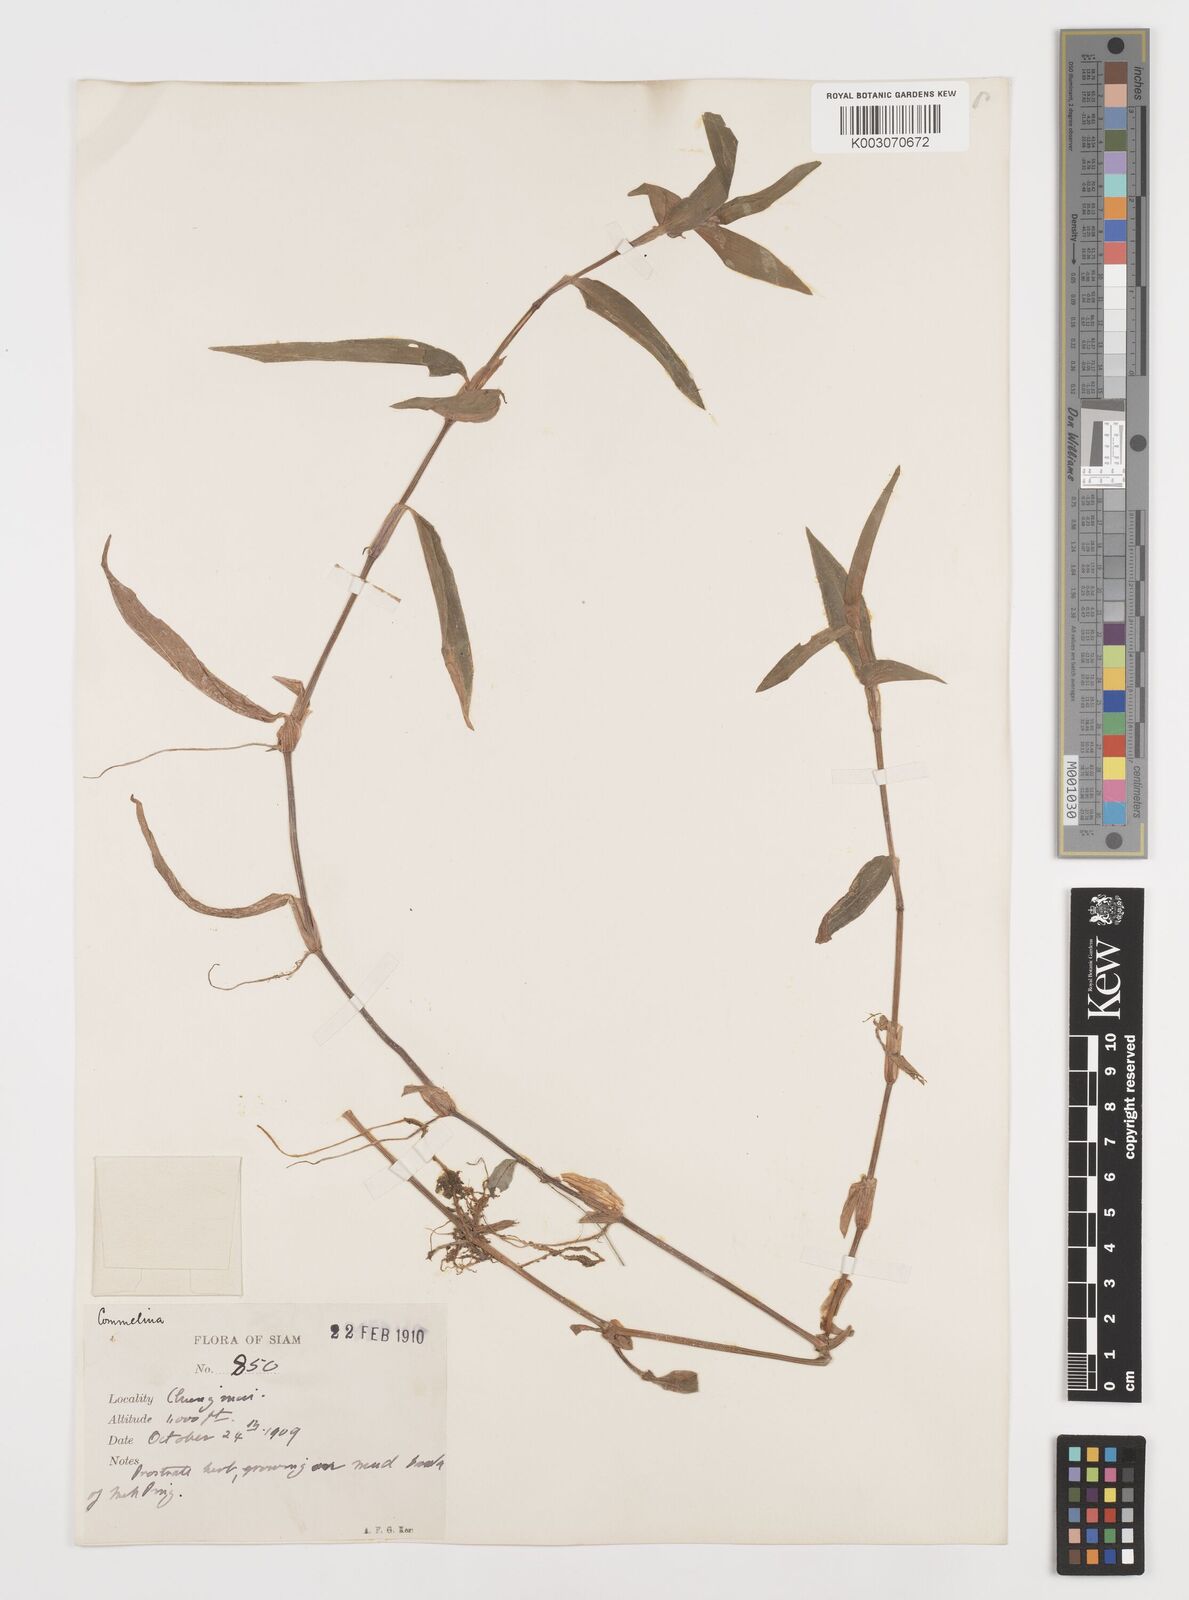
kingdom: Plantae
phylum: Tracheophyta
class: Liliopsida
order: Commelinales
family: Commelinaceae
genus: Commelina
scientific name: Commelina
